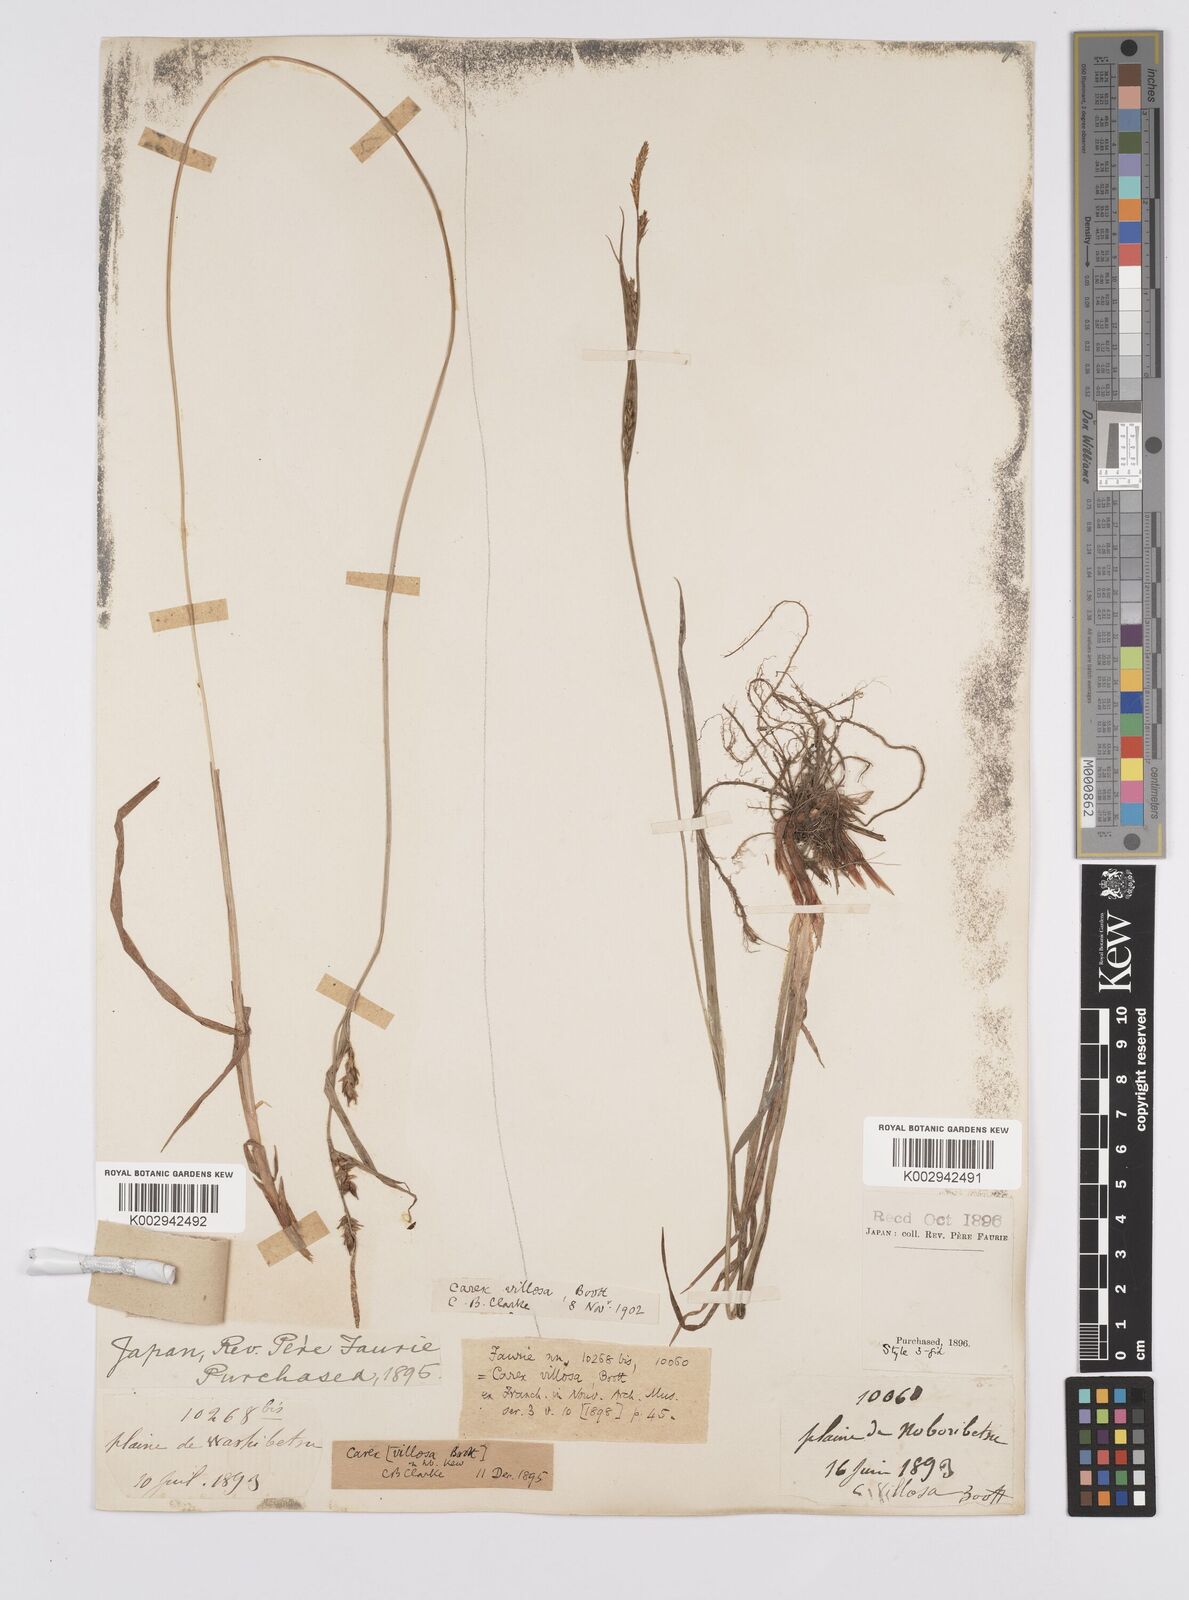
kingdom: Plantae
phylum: Tracheophyta
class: Liliopsida
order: Poales
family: Cyperaceae
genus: Carex
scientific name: Carex latisquamea
